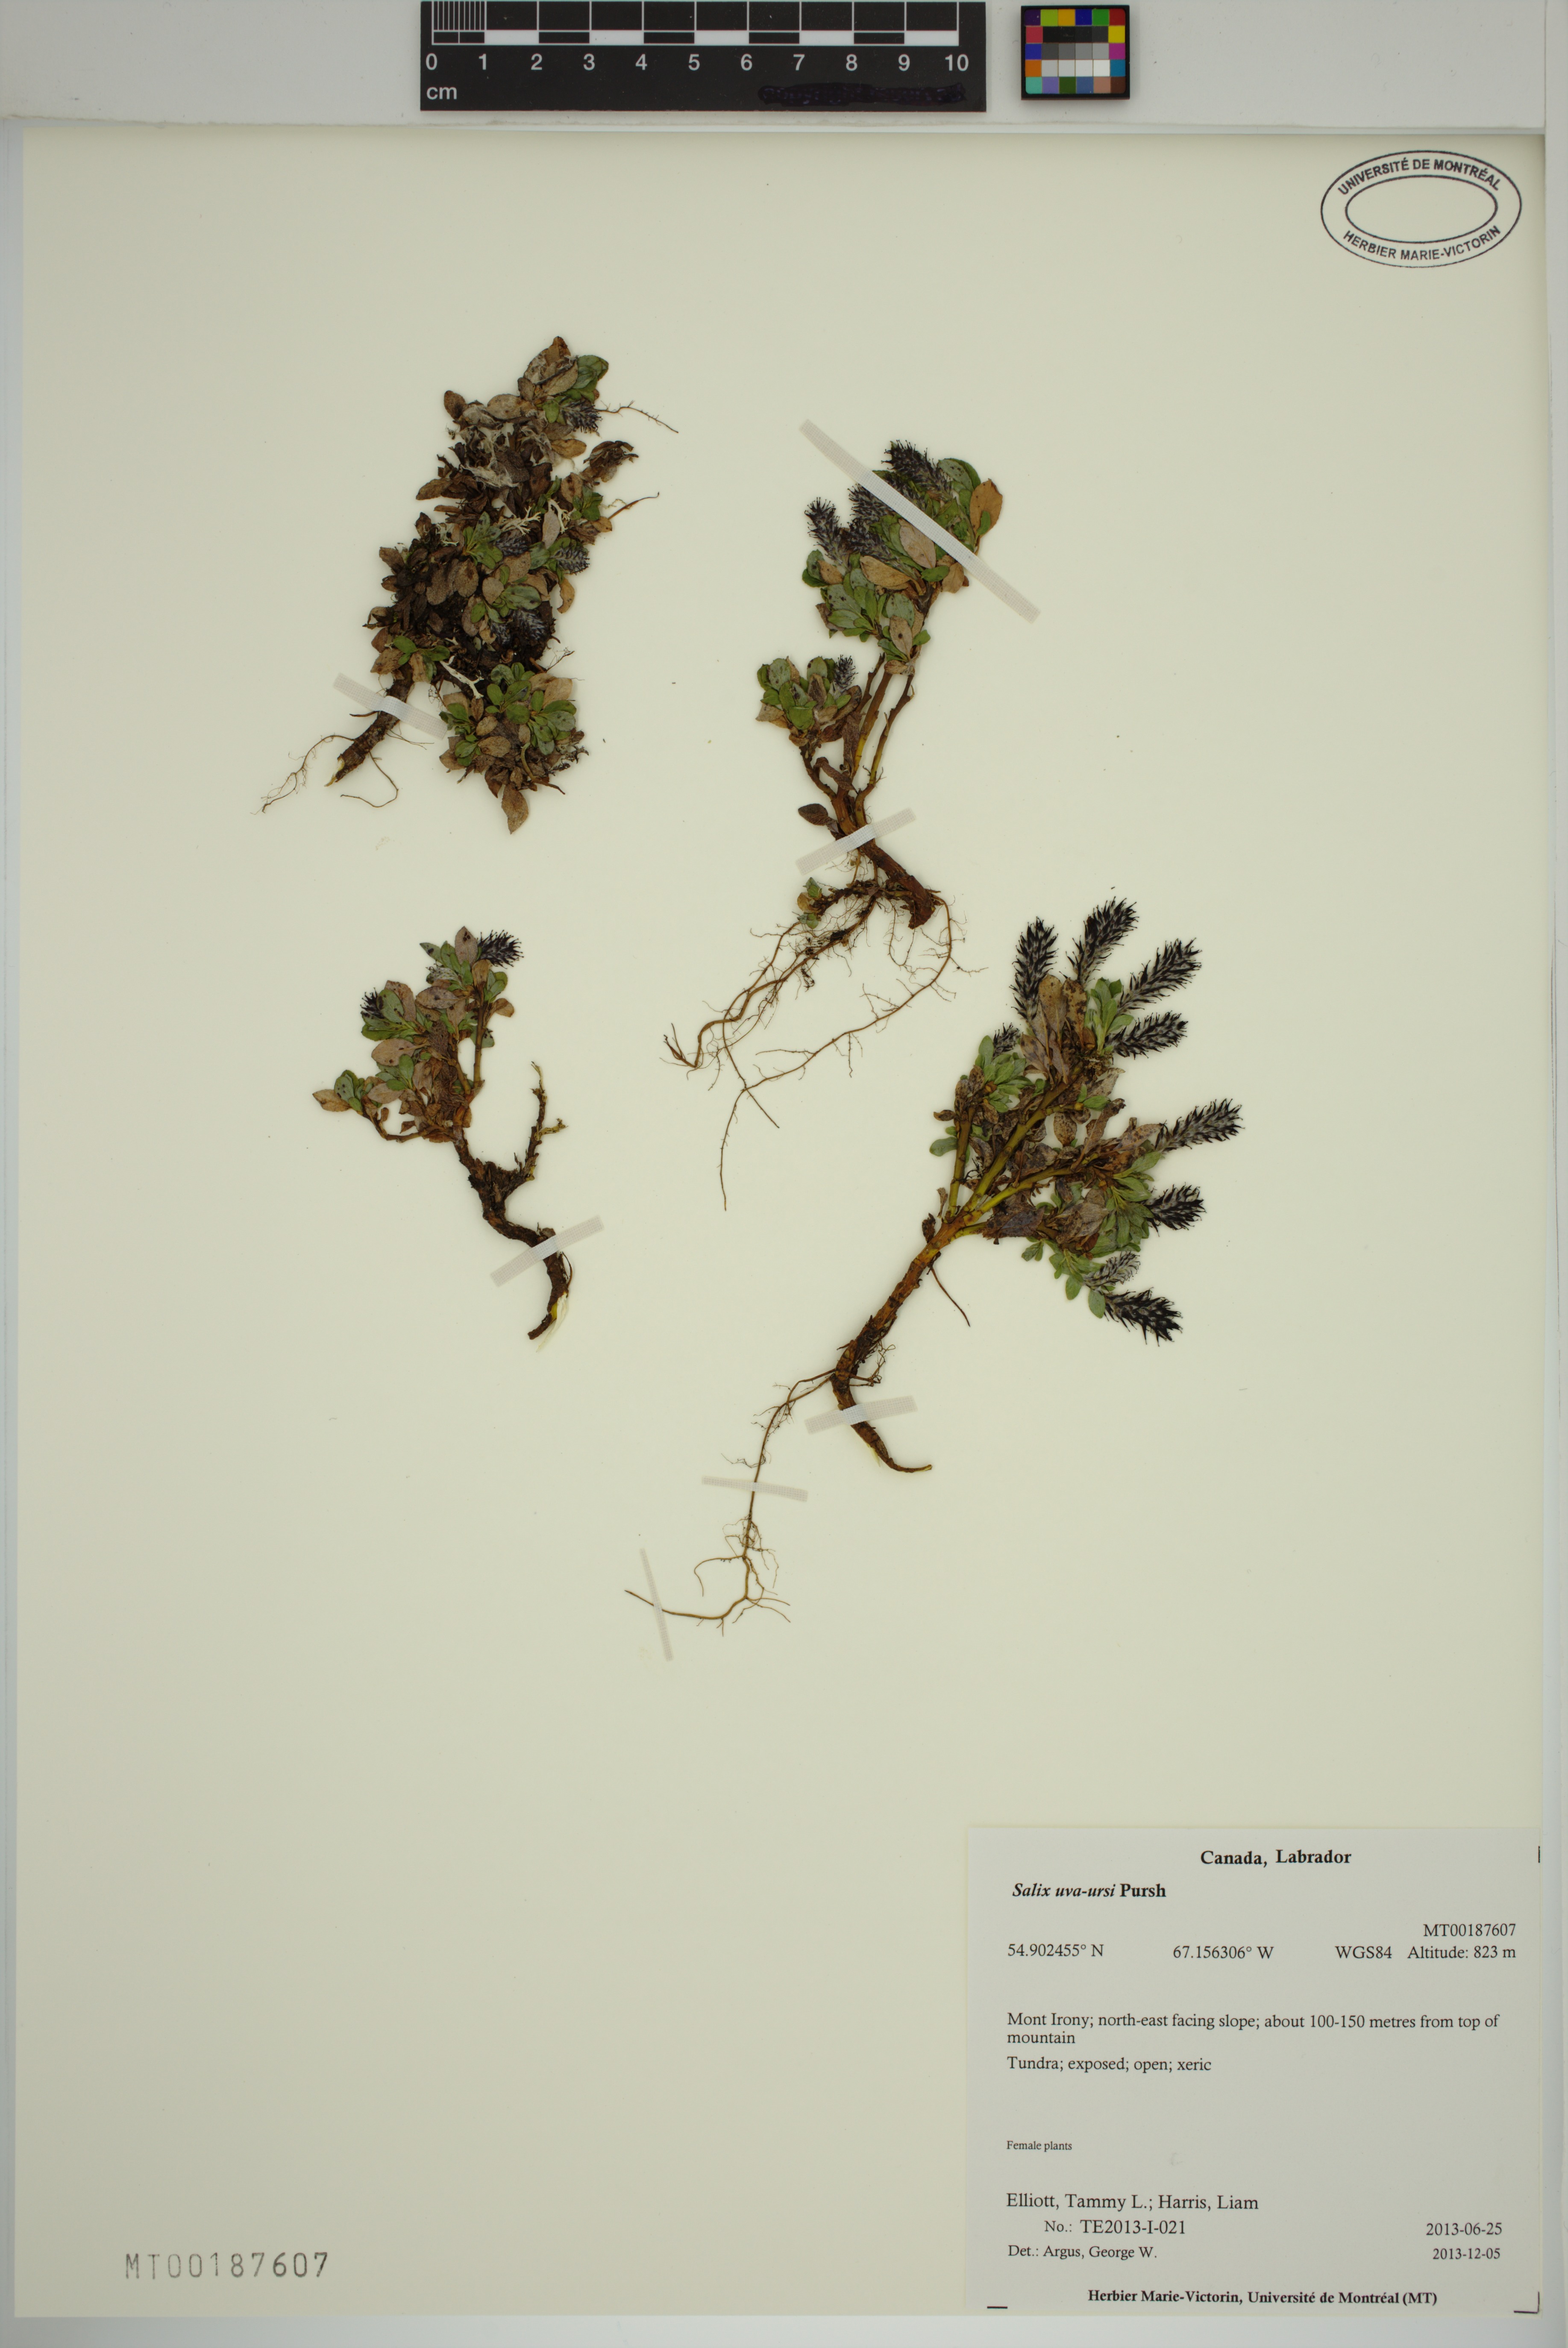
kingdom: Plantae
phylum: Tracheophyta
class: Magnoliopsida
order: Malpighiales
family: Salicaceae
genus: Salix
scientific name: Salix uva-ursi
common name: Bearberry willow
